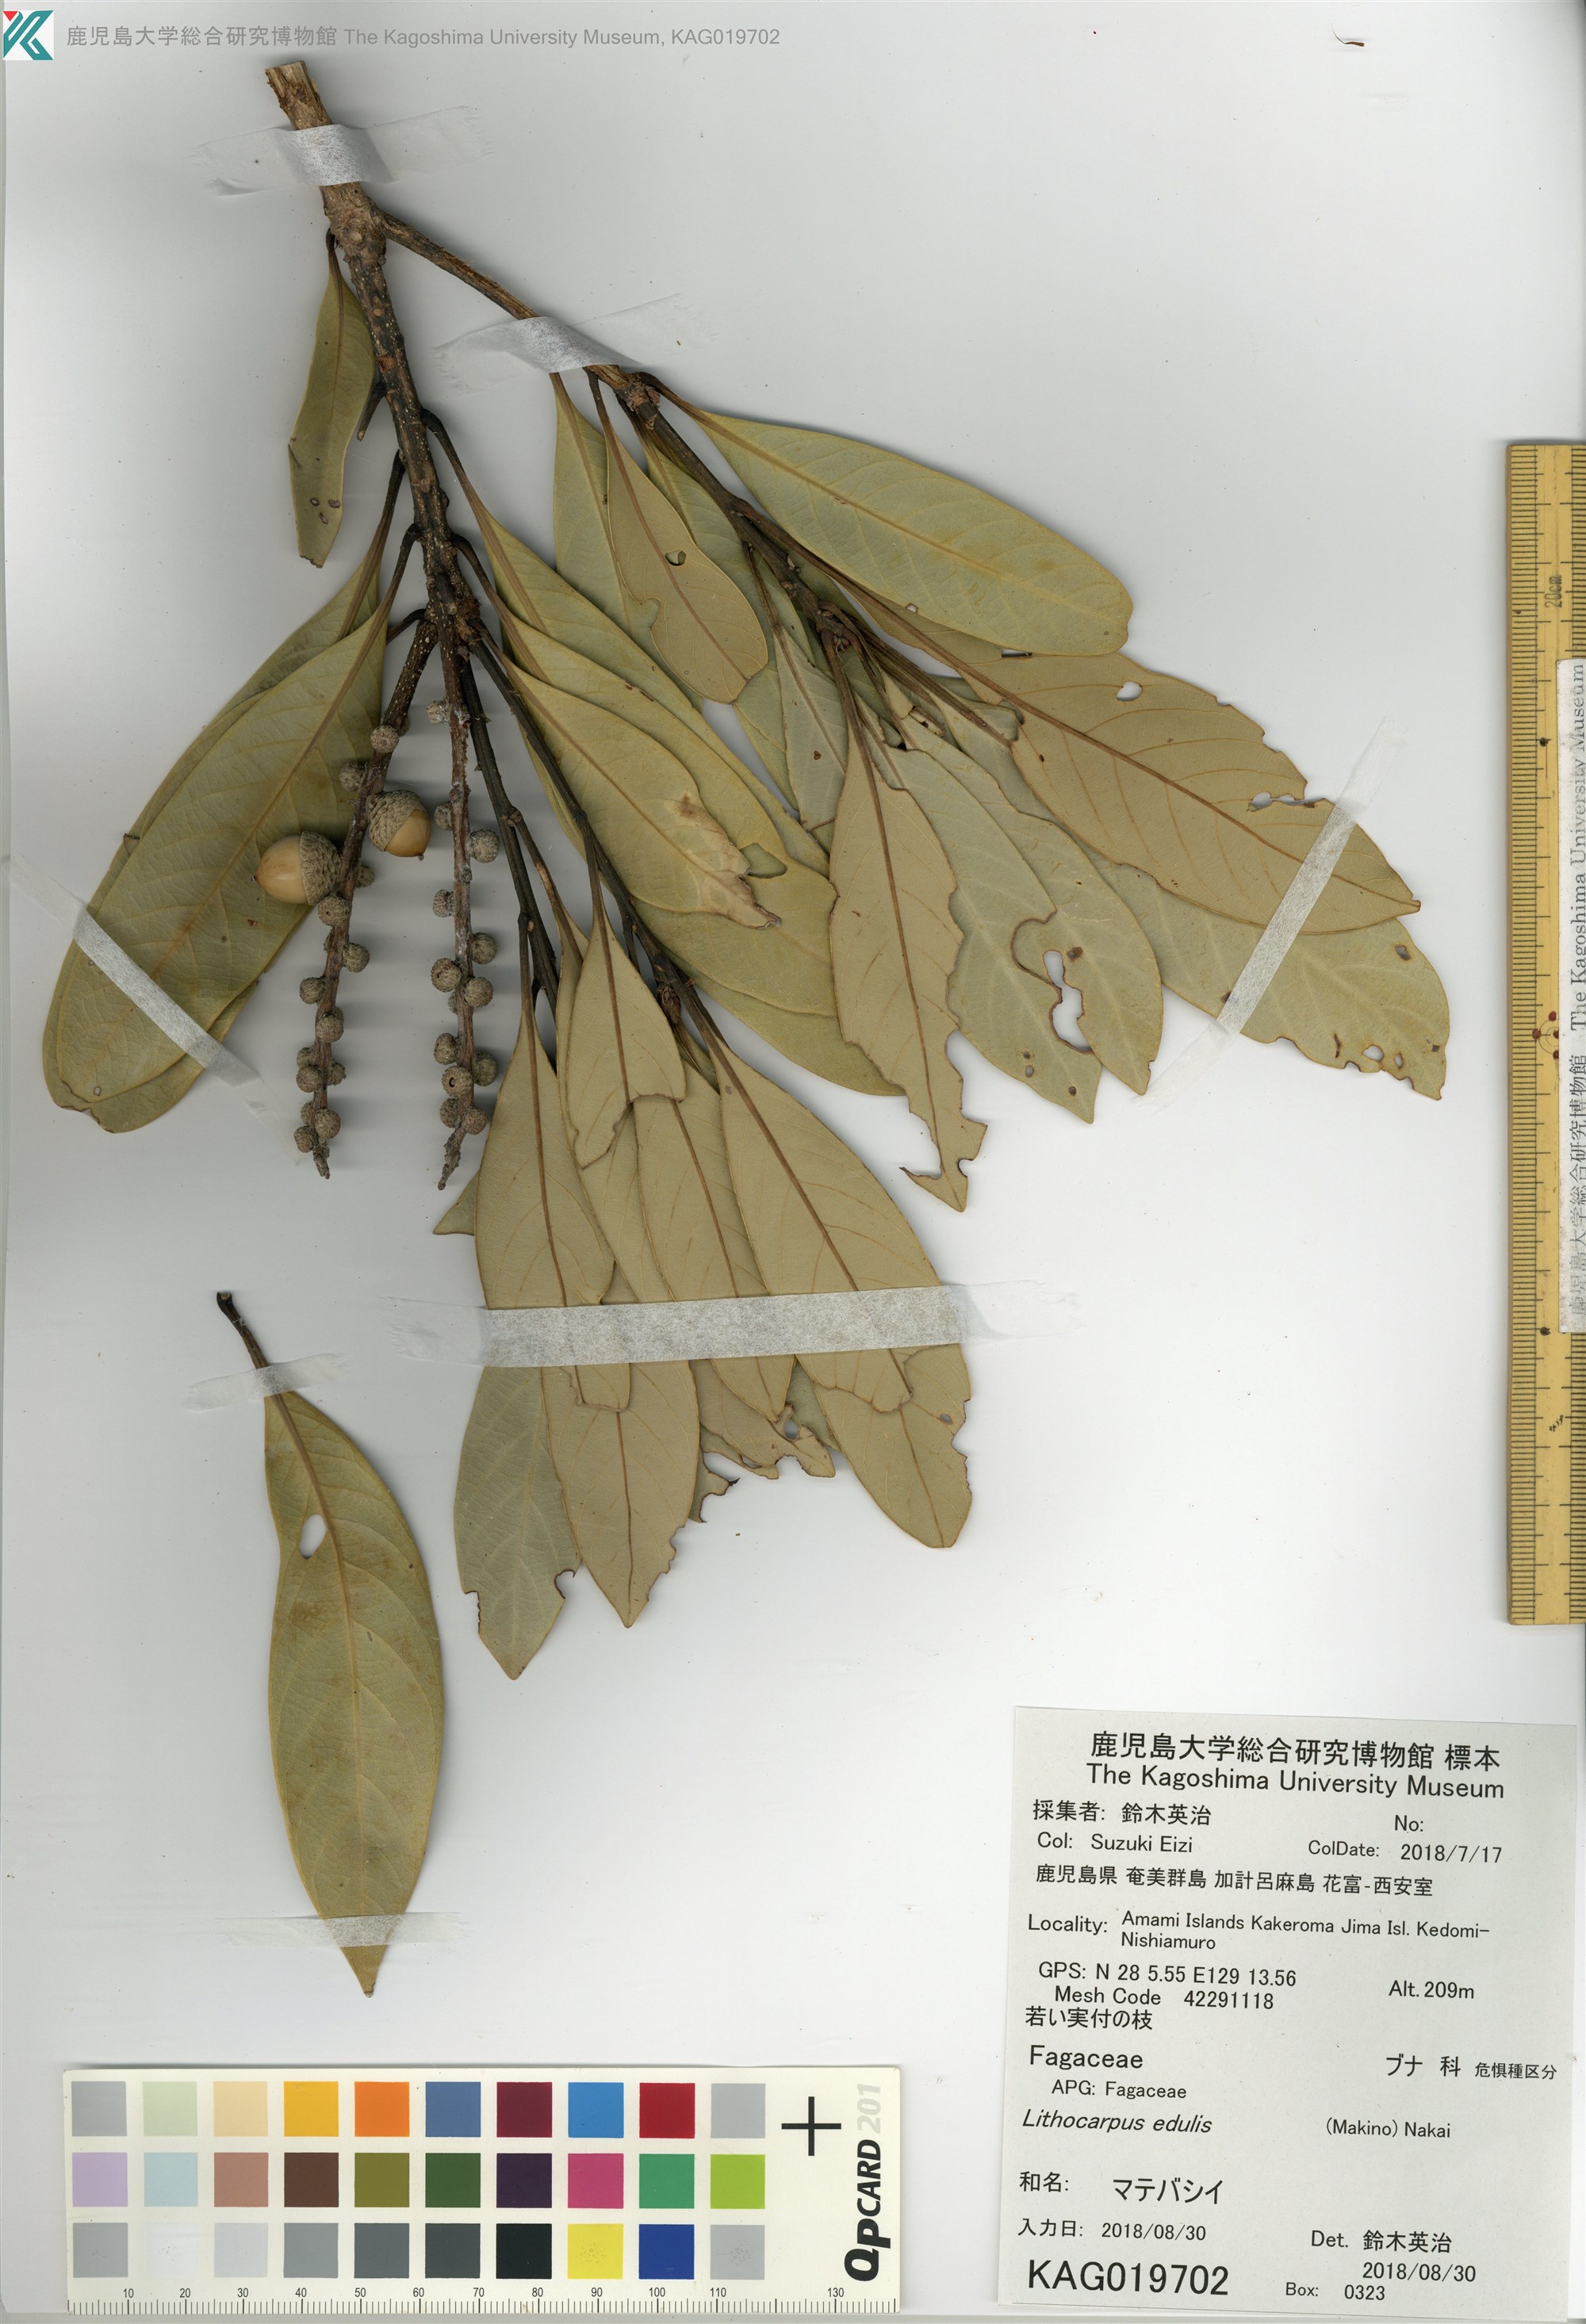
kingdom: Plantae
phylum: Tracheophyta
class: Magnoliopsida
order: Fagales
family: Fagaceae
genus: Lithocarpus
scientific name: Lithocarpus edulis
